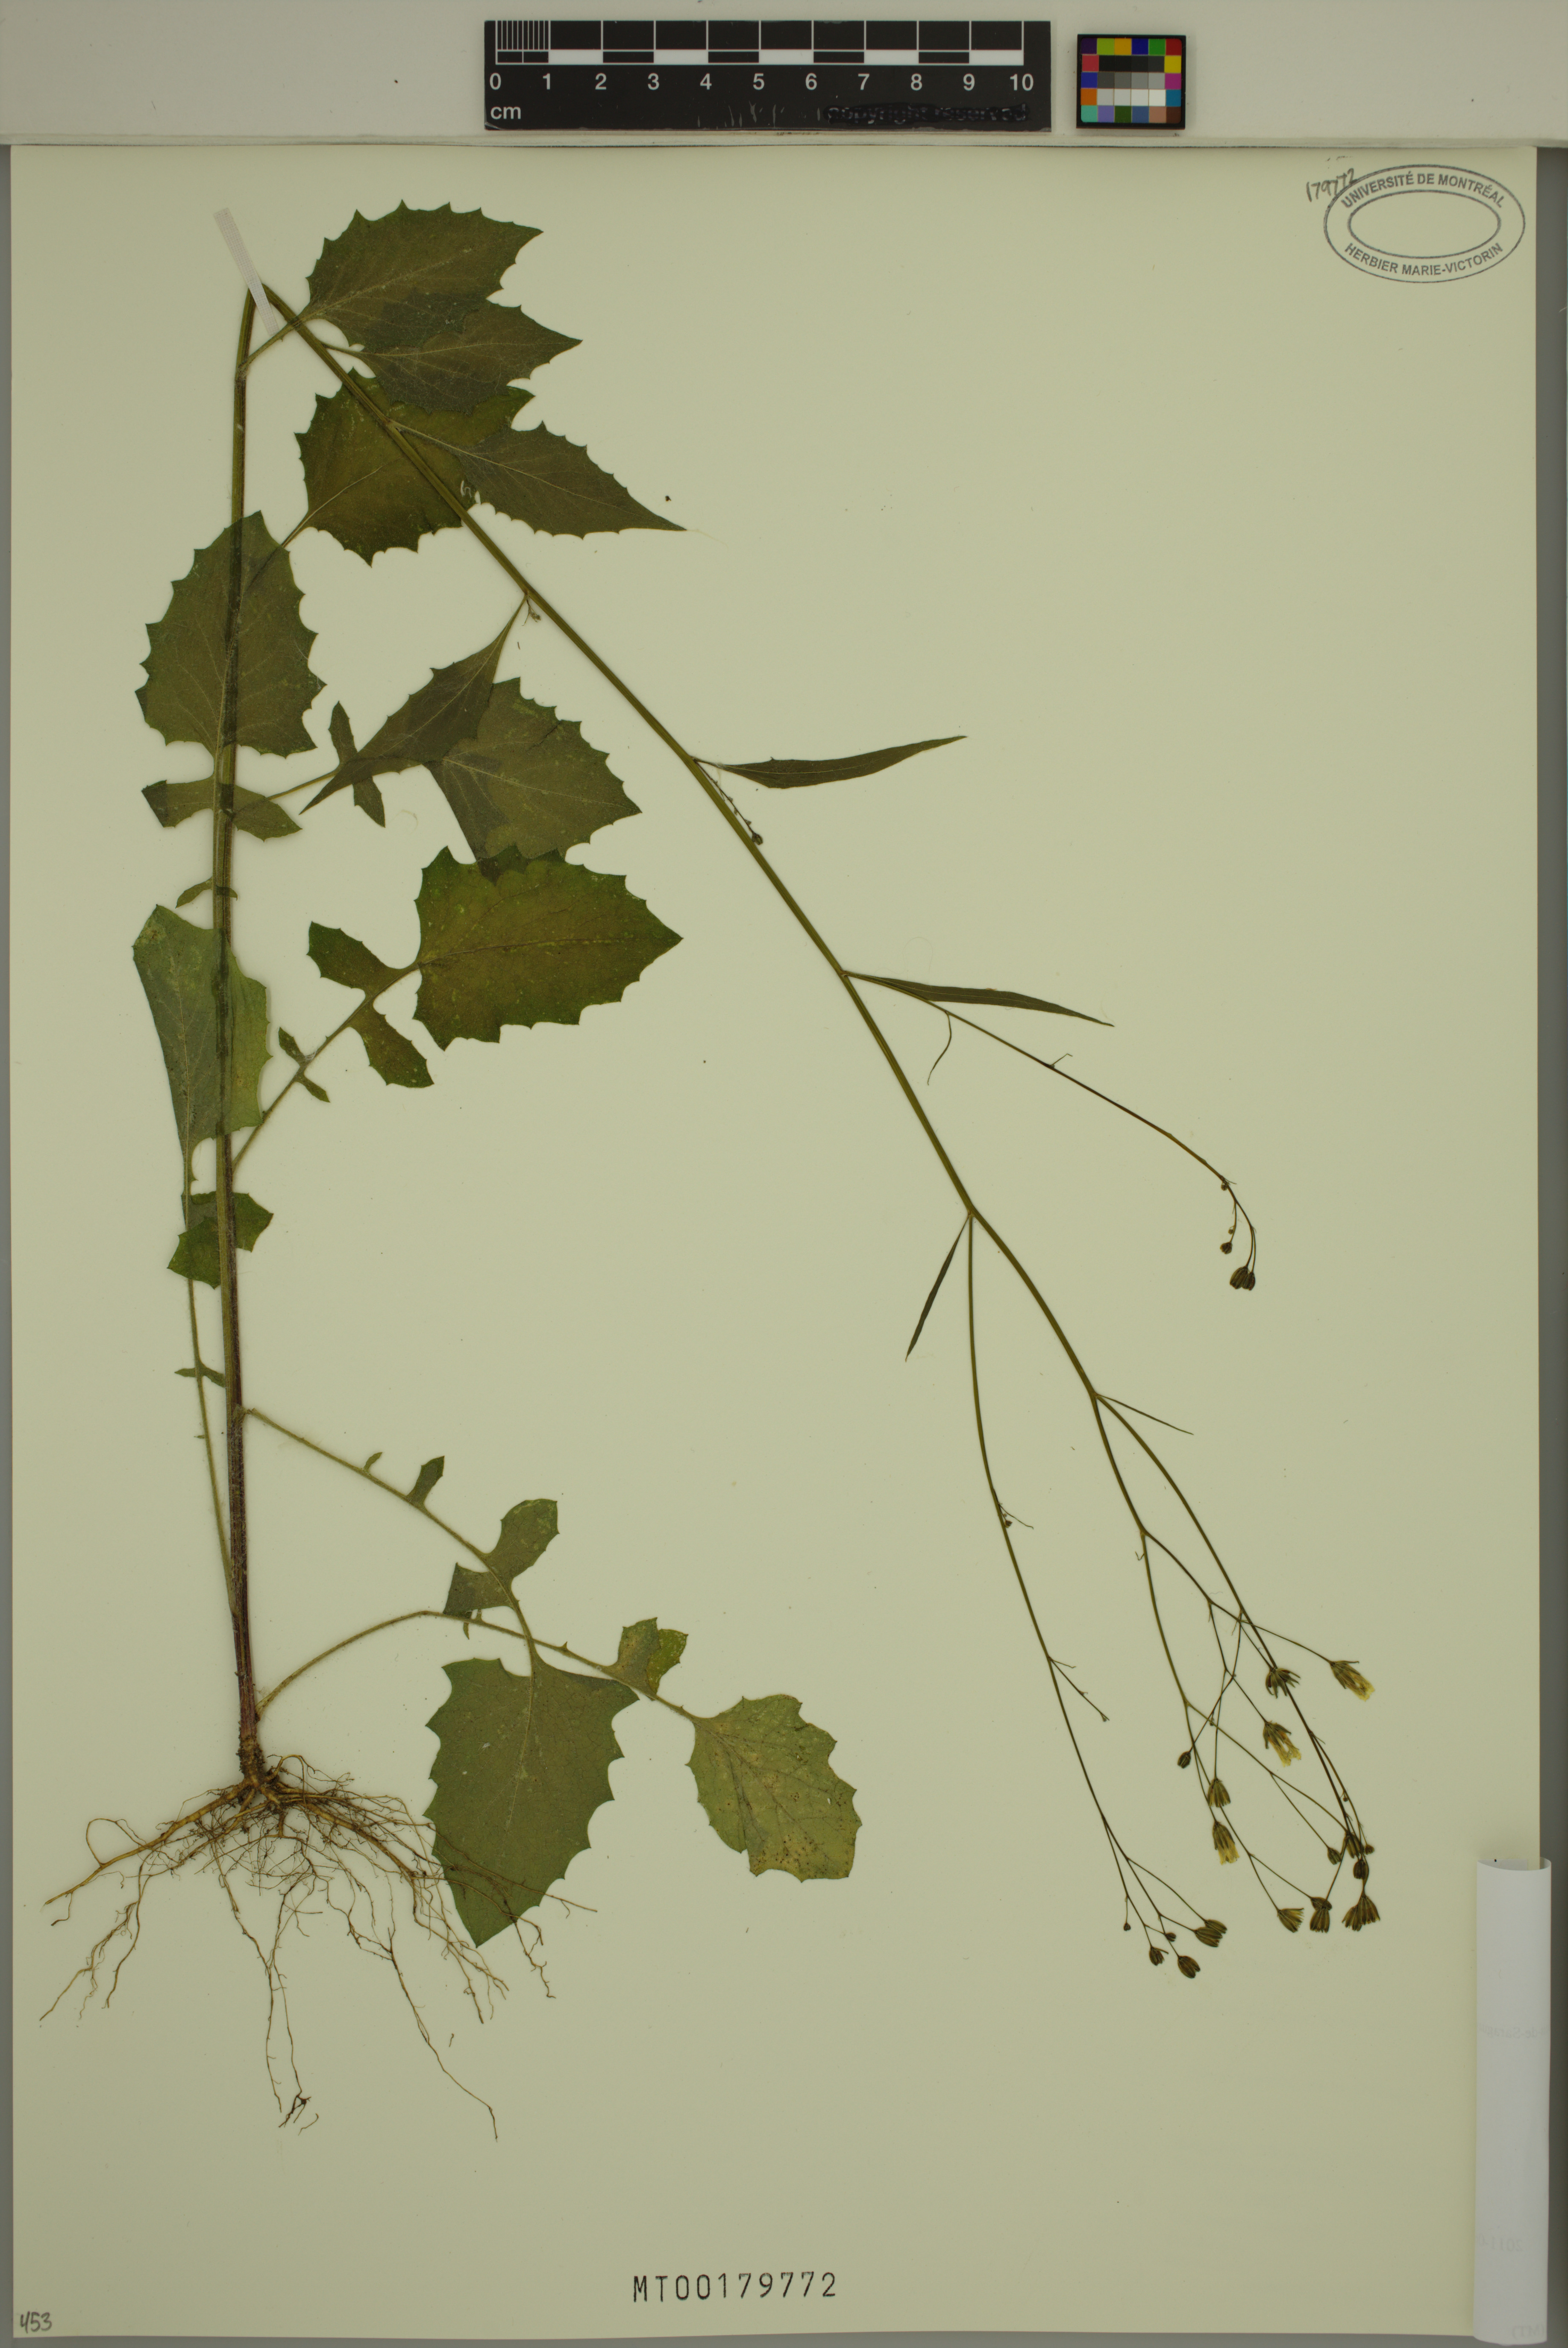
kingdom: Plantae
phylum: Tracheophyta
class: Magnoliopsida
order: Asterales
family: Asteraceae
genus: Lapsana
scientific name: Lapsana communis
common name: Nipplewort
